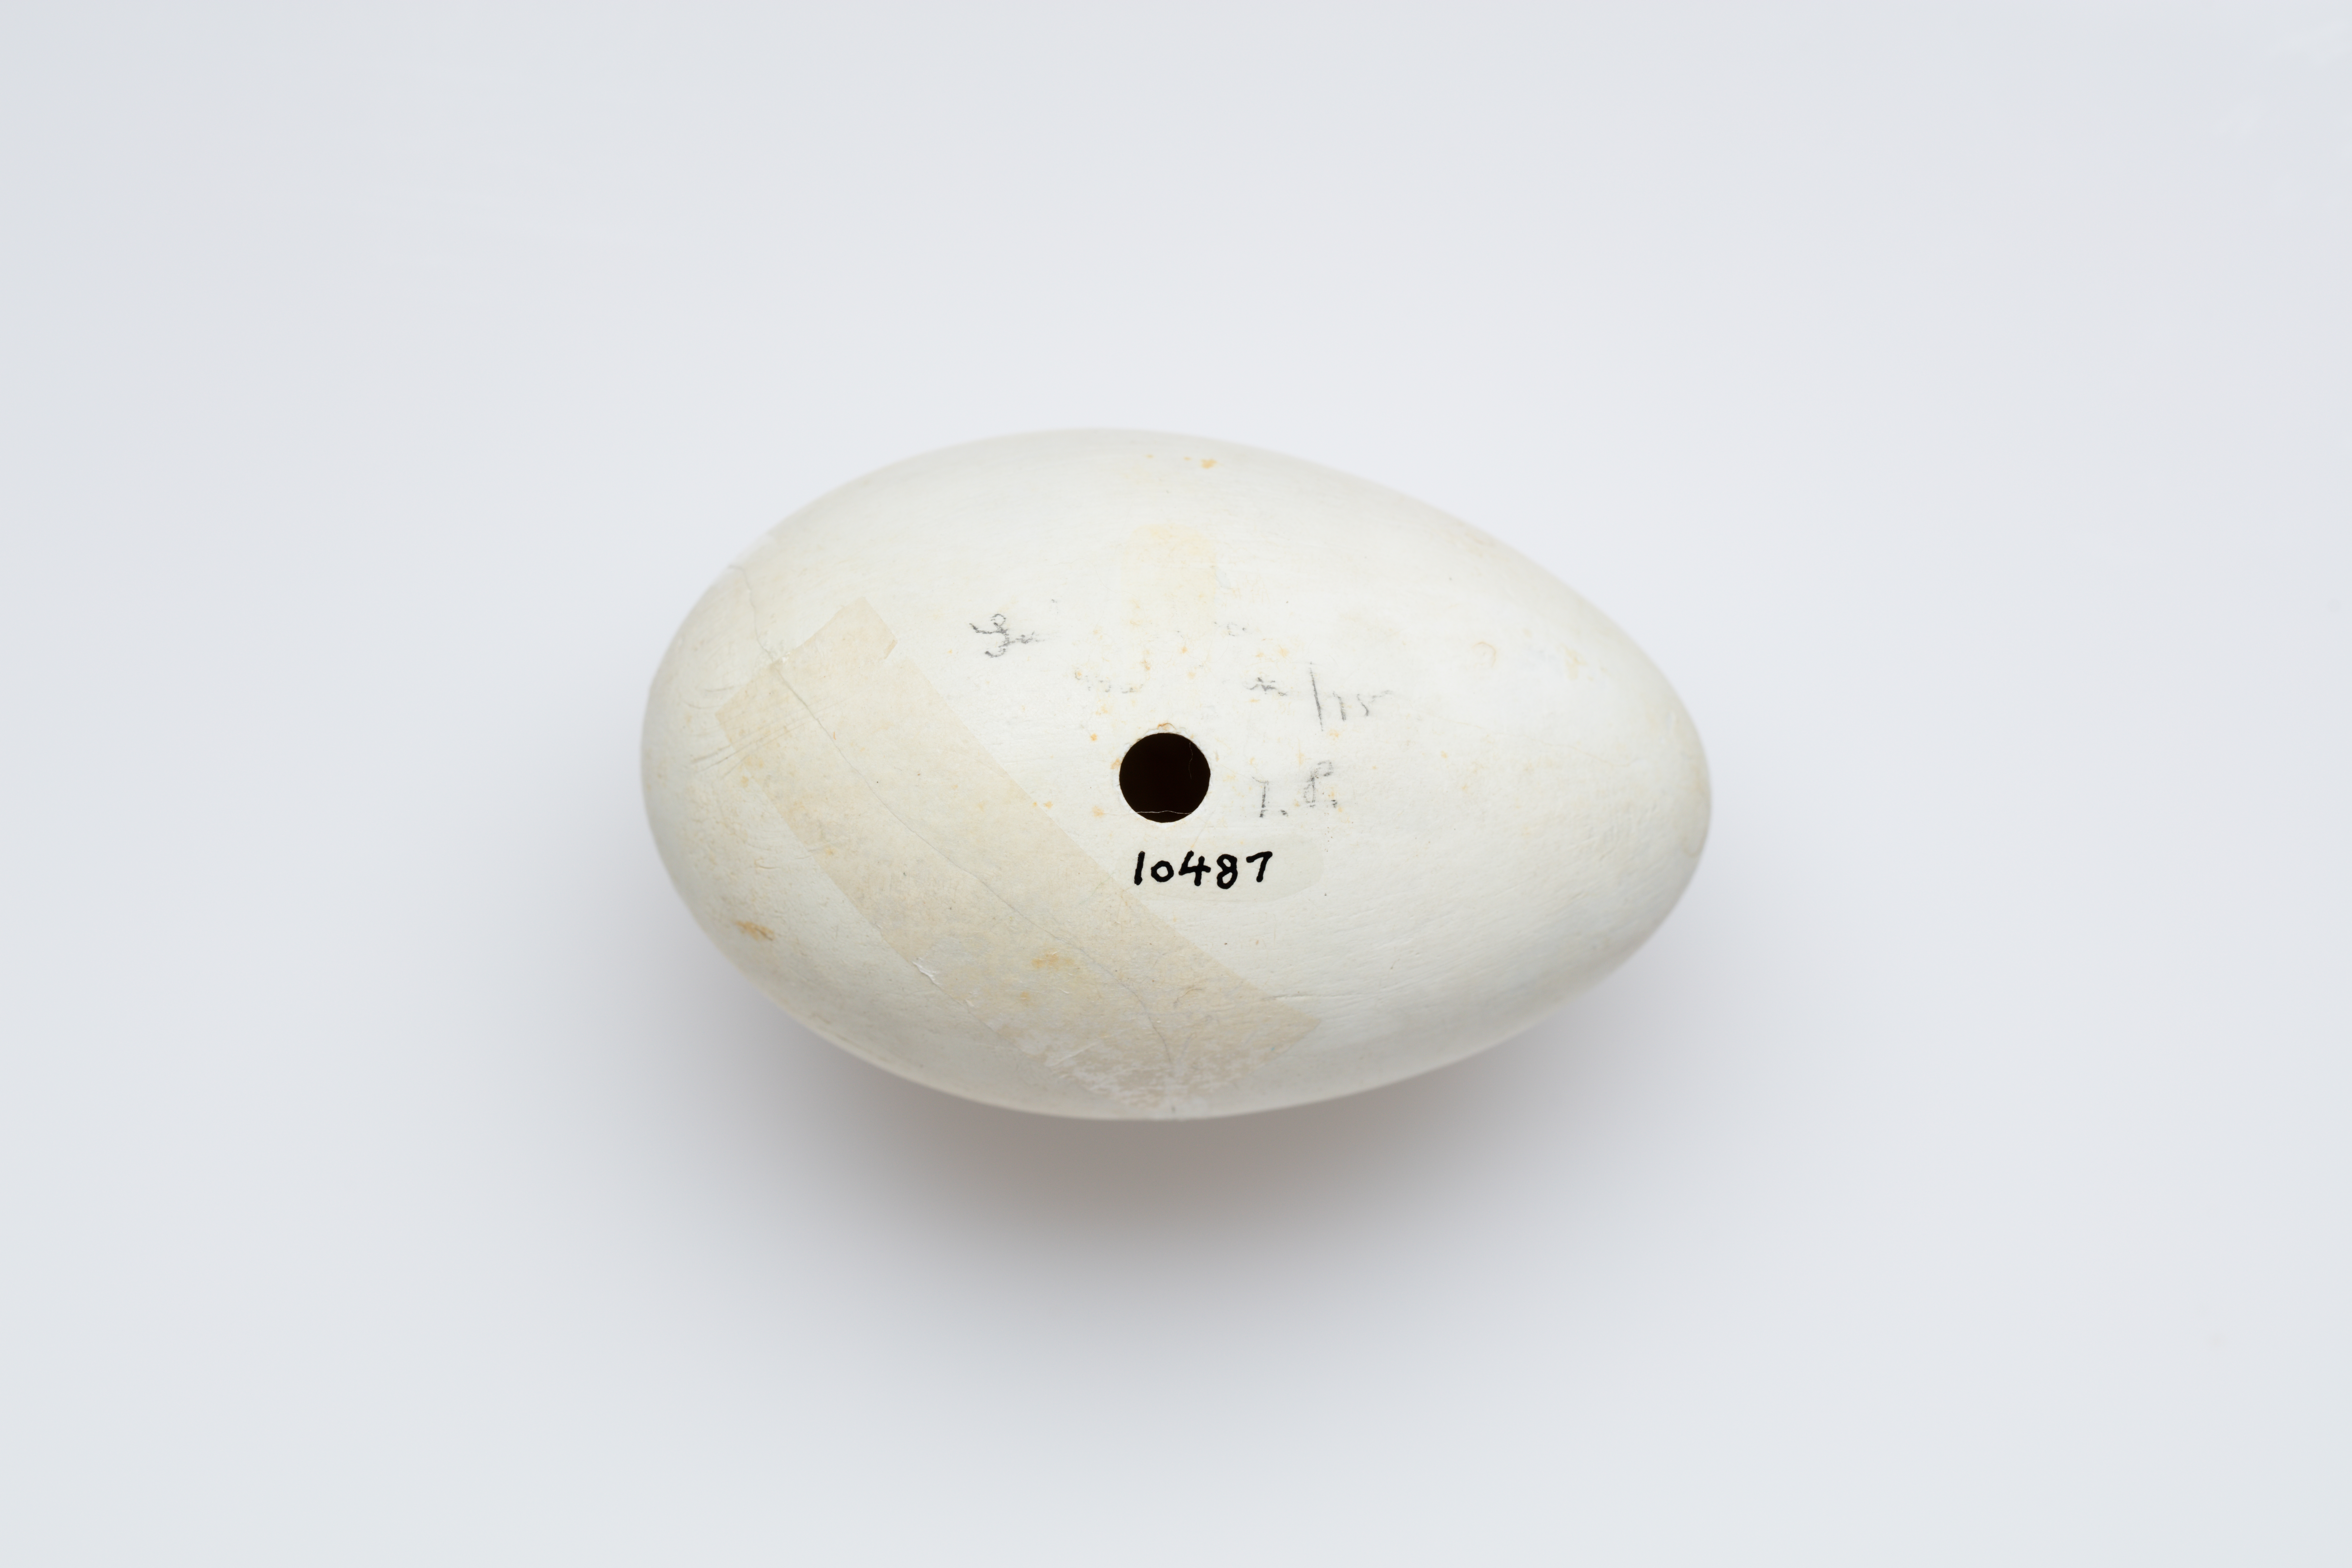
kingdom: Animalia
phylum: Chordata
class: Aves
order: Suliformes
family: Sulidae
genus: Morus
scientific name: Morus bassanus
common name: Northern gannet
